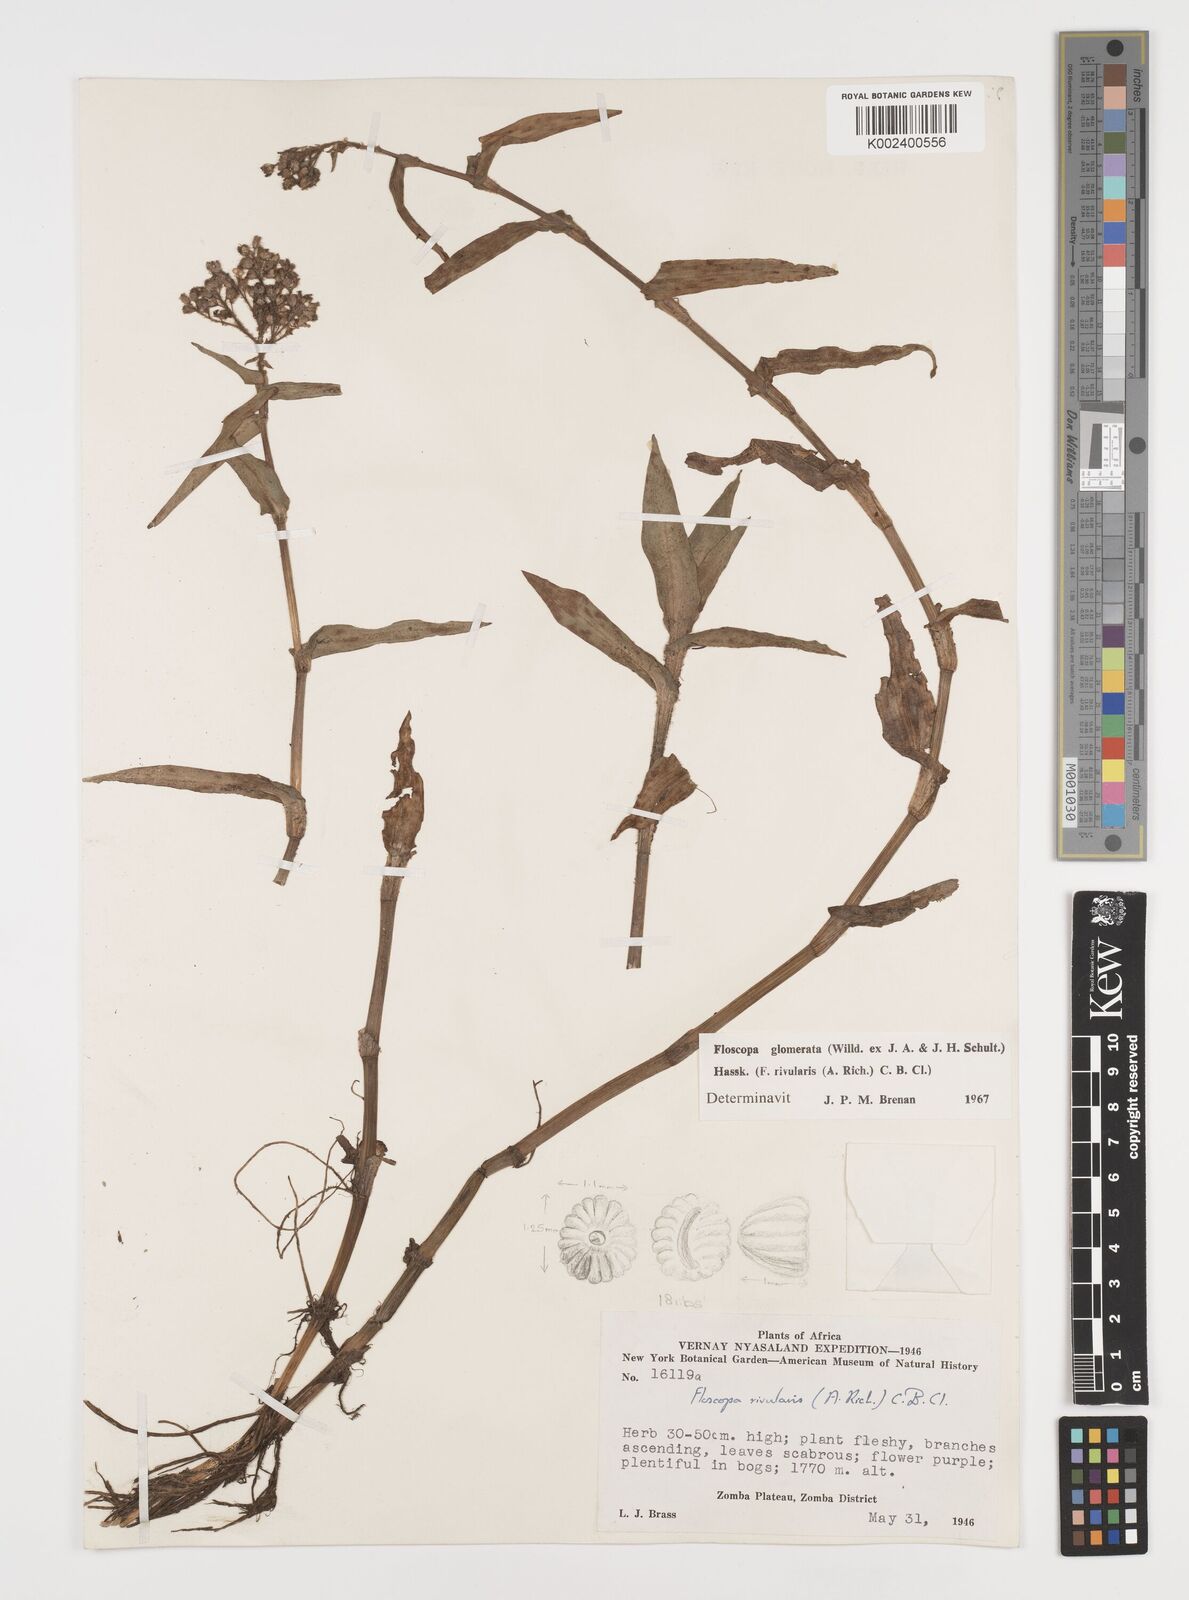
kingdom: Plantae
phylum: Tracheophyta
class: Liliopsida
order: Commelinales
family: Commelinaceae
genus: Floscopa
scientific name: Floscopa glomerata
